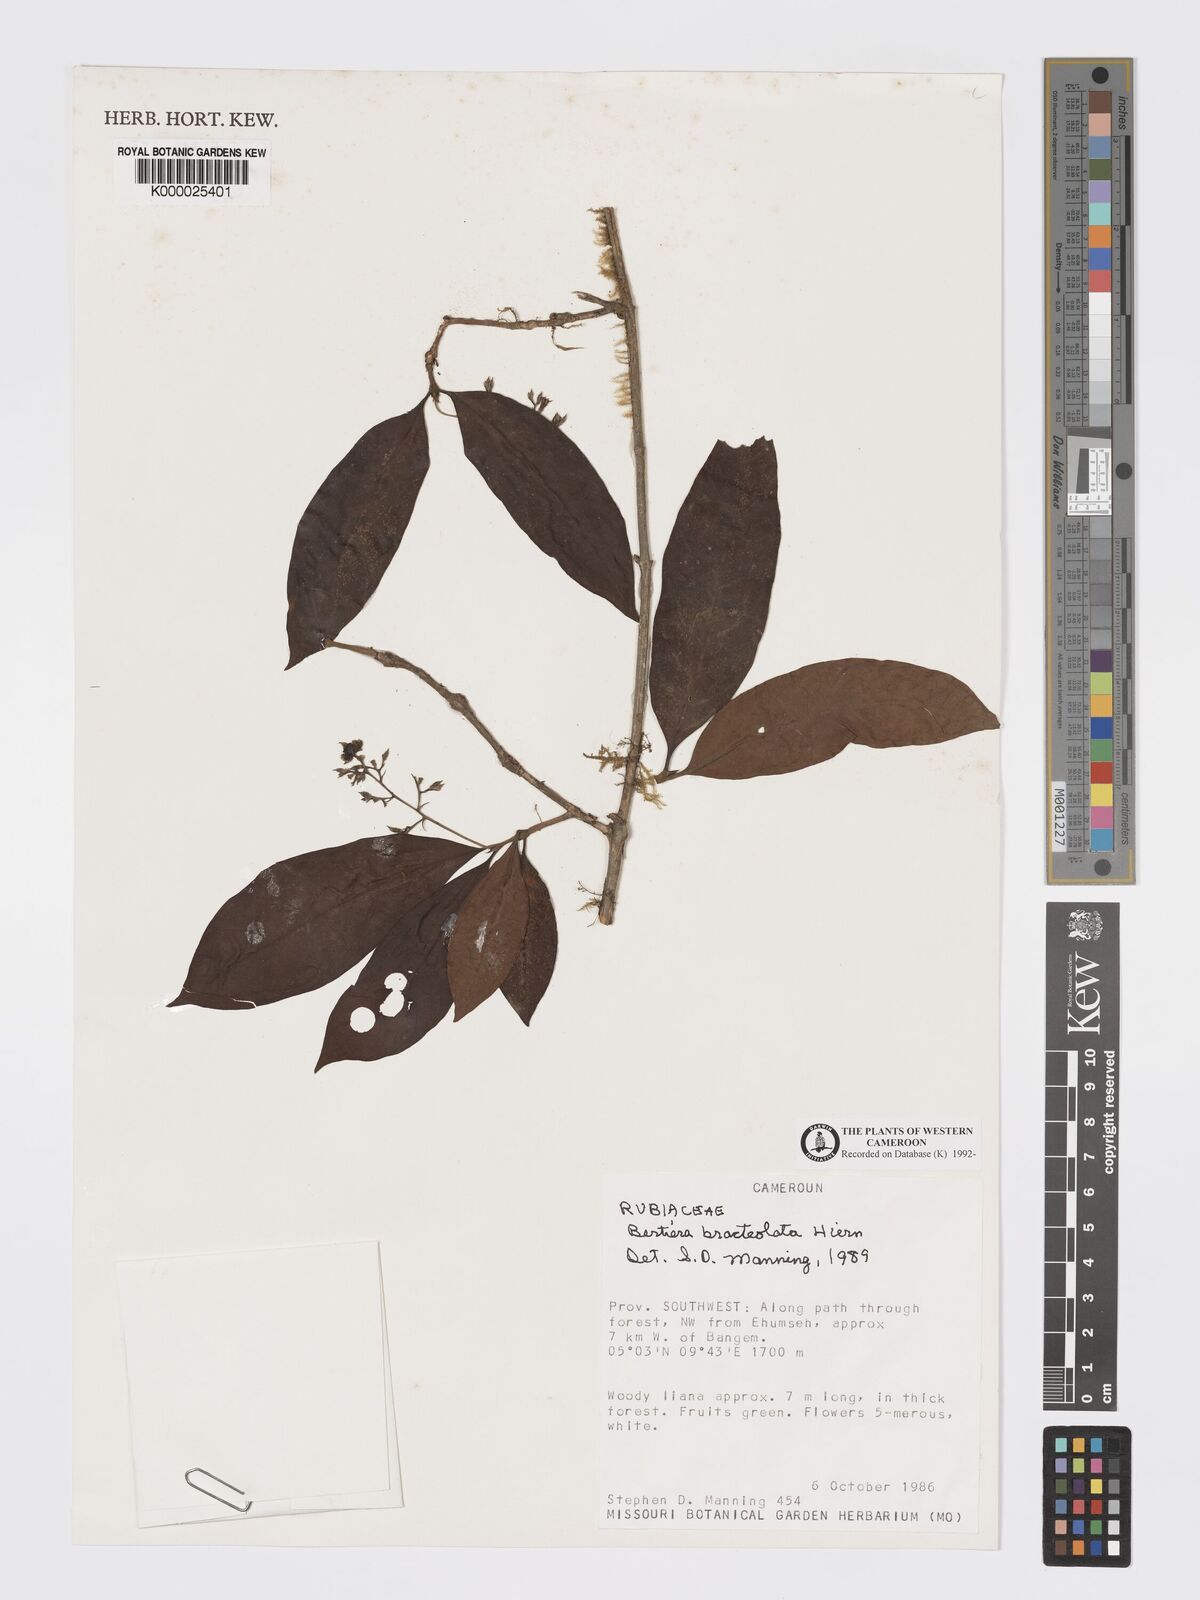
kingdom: Plantae
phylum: Tracheophyta
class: Magnoliopsida
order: Gentianales
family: Rubiaceae
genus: Bertiera
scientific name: Bertiera bracteolata
